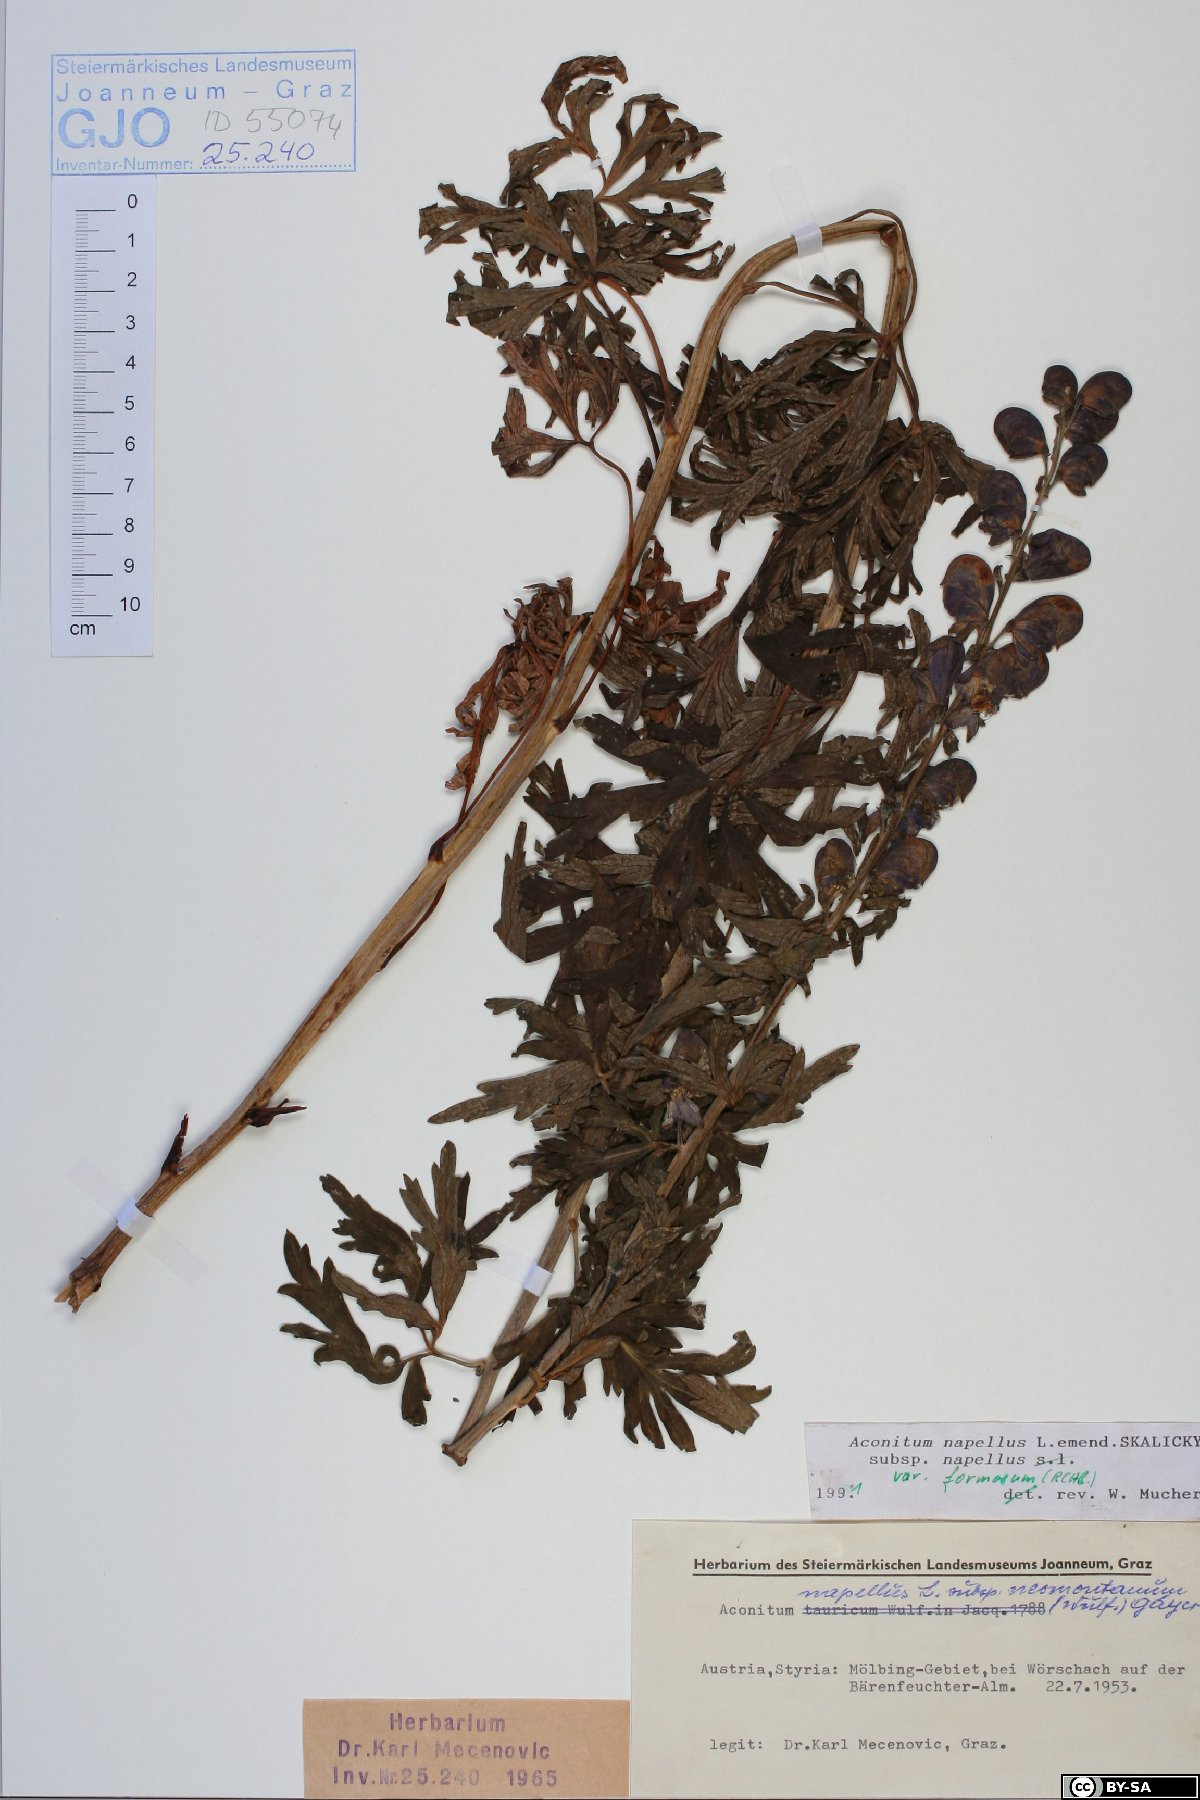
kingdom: Plantae
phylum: Tracheophyta
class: Magnoliopsida
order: Ranunculales
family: Ranunculaceae
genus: Aconitum
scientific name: Aconitum napellus
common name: Garden monkshood
